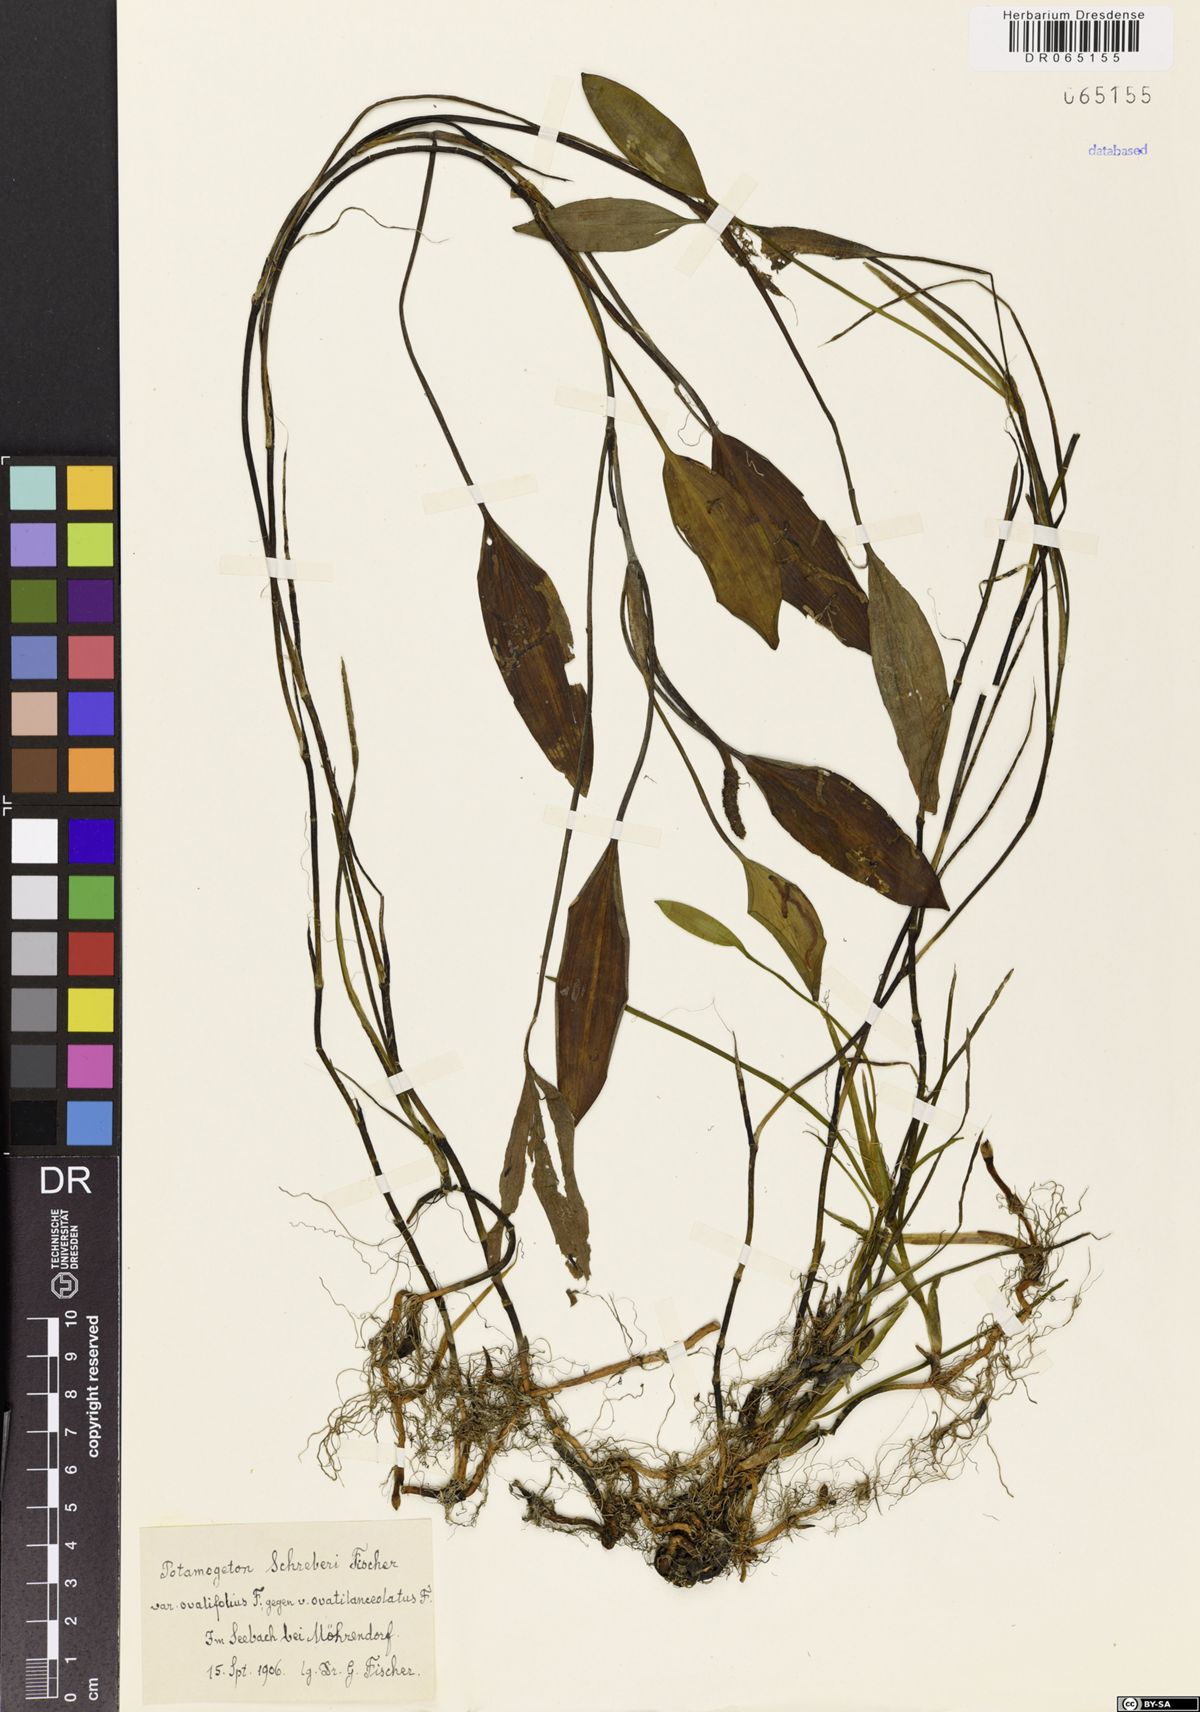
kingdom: Plantae
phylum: Tracheophyta
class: Liliopsida
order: Alismatales
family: Potamogetonaceae
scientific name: Potamogetonaceae
